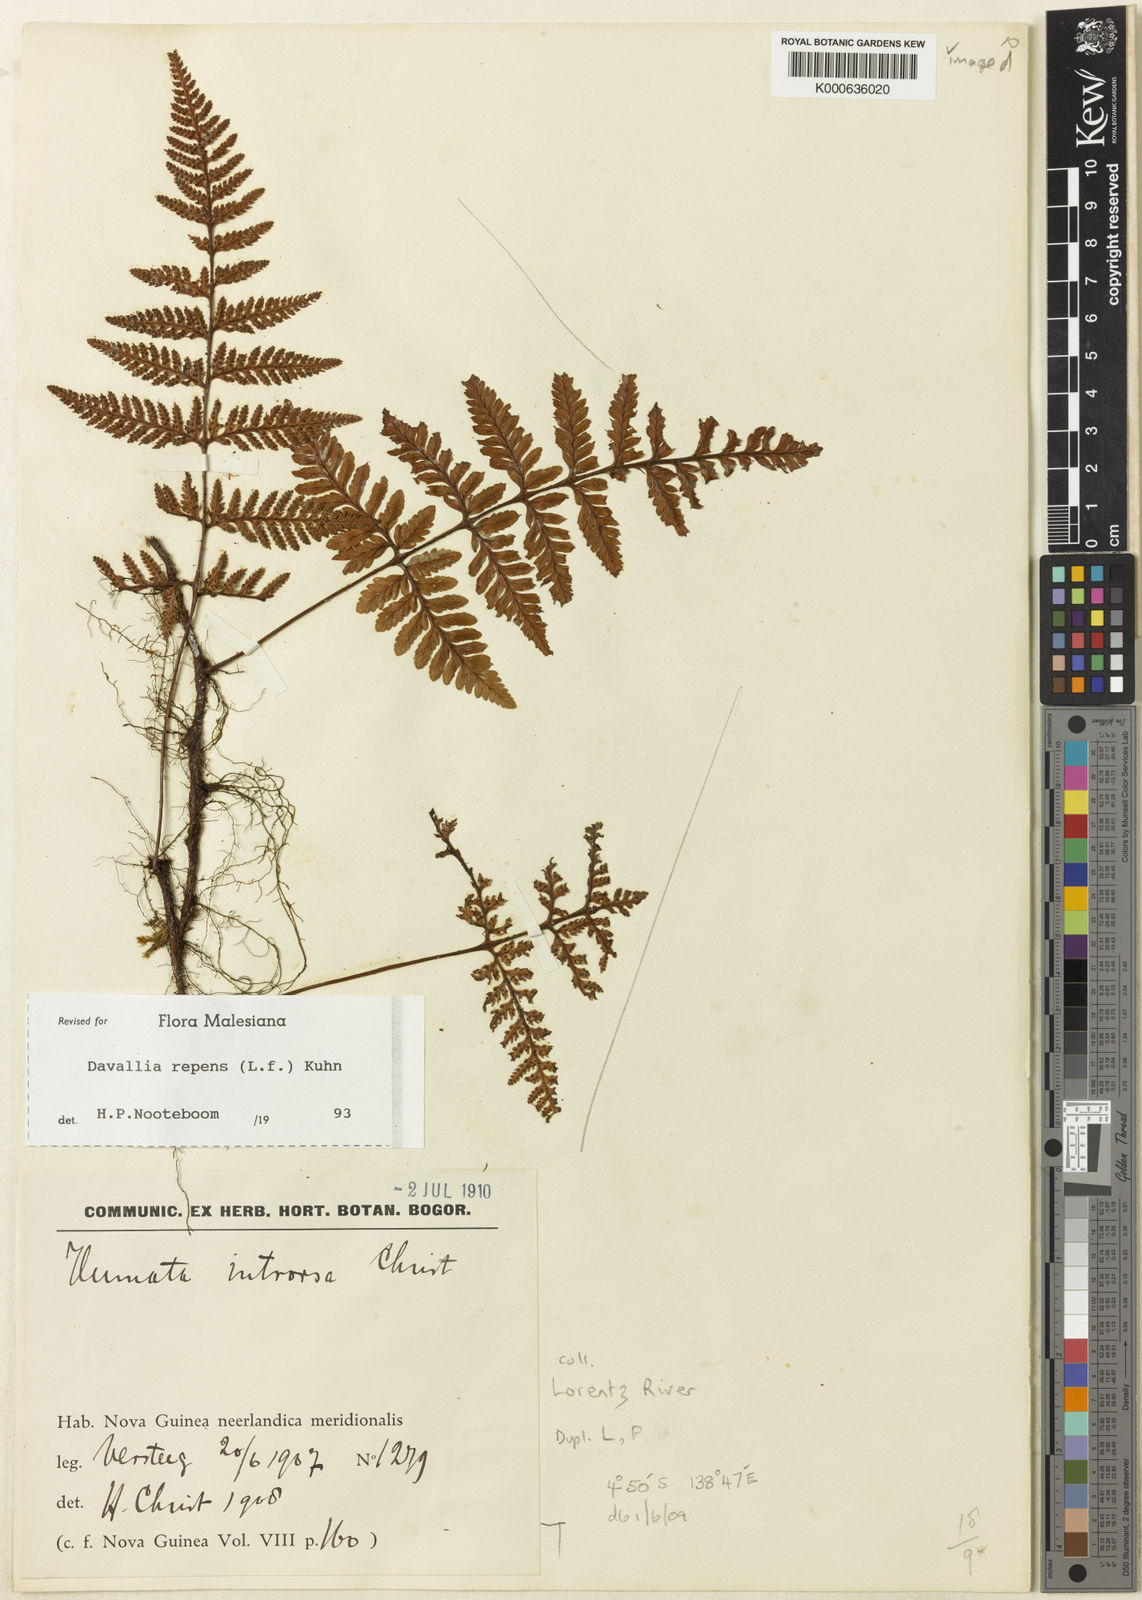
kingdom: Plantae
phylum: Tracheophyta
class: Polypodiopsida
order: Polypodiales
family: Davalliaceae
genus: Davallia
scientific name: Davallia
